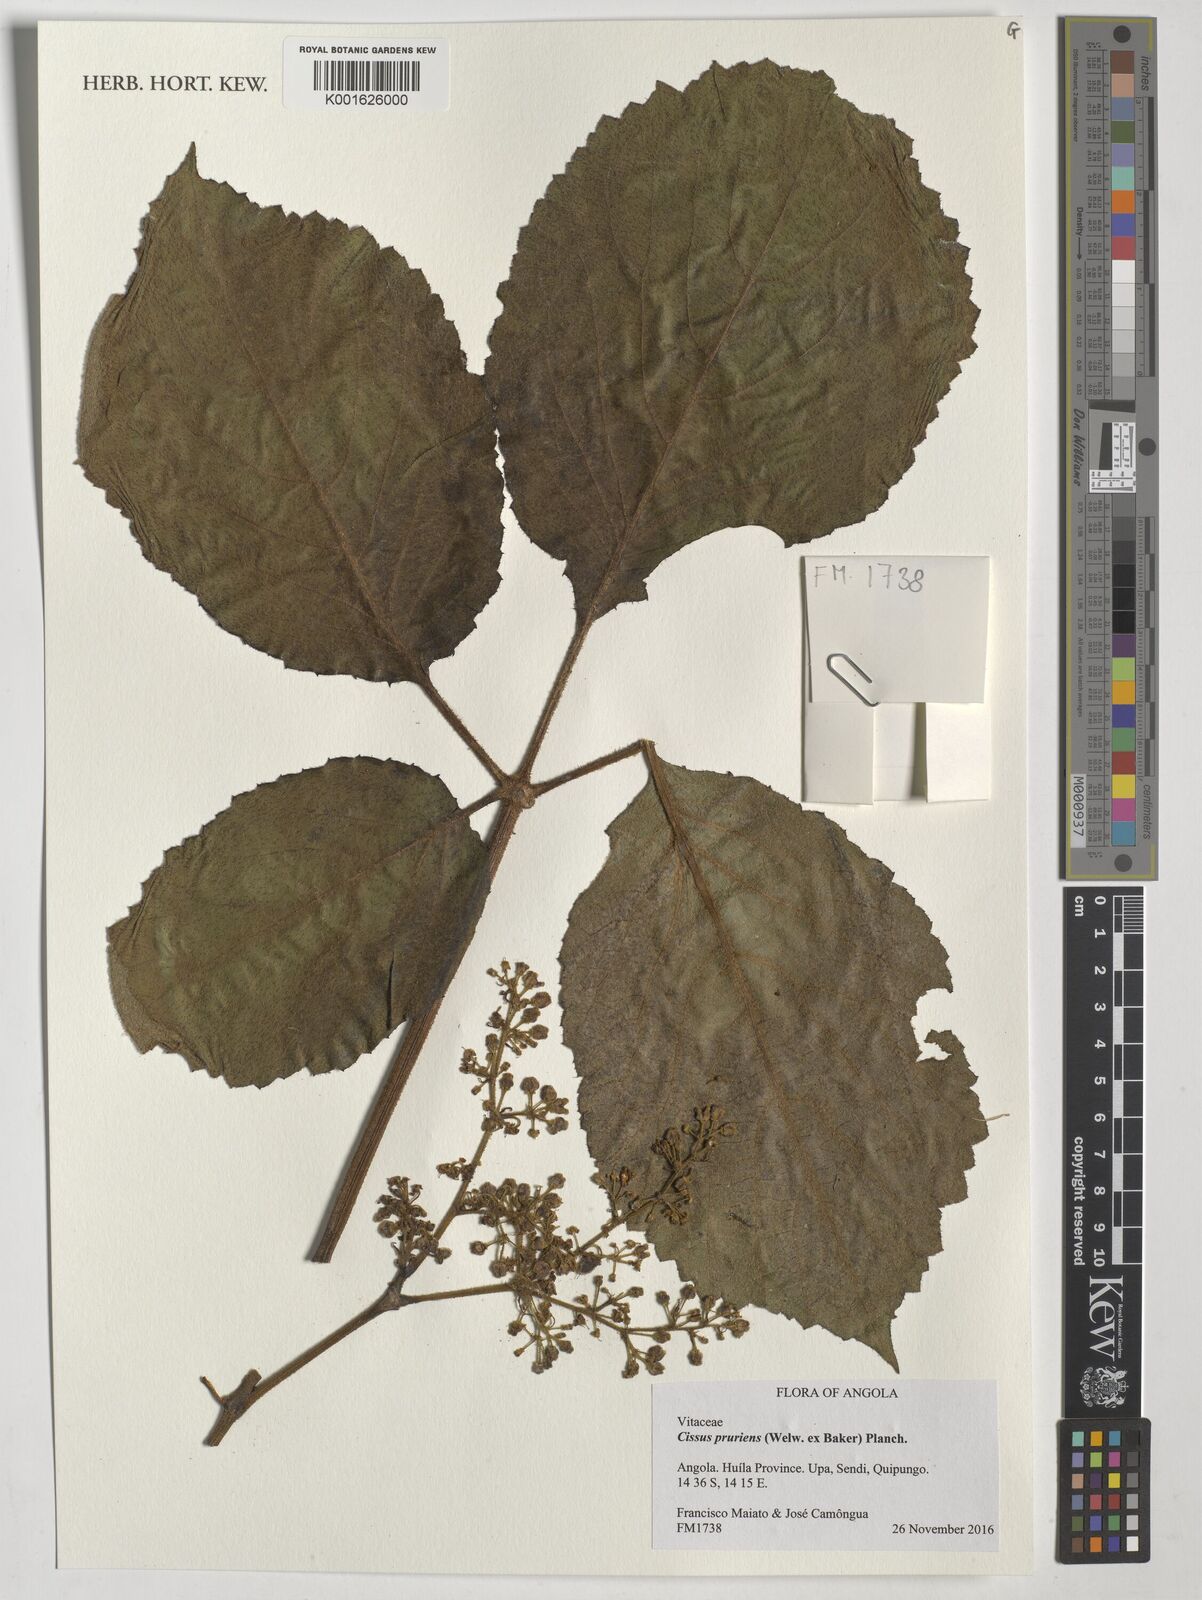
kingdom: Plantae
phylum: Tracheophyta
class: Magnoliopsida
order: Vitales
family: Vitaceae
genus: Cyphostemma
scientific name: Cyphostemma pruriens
